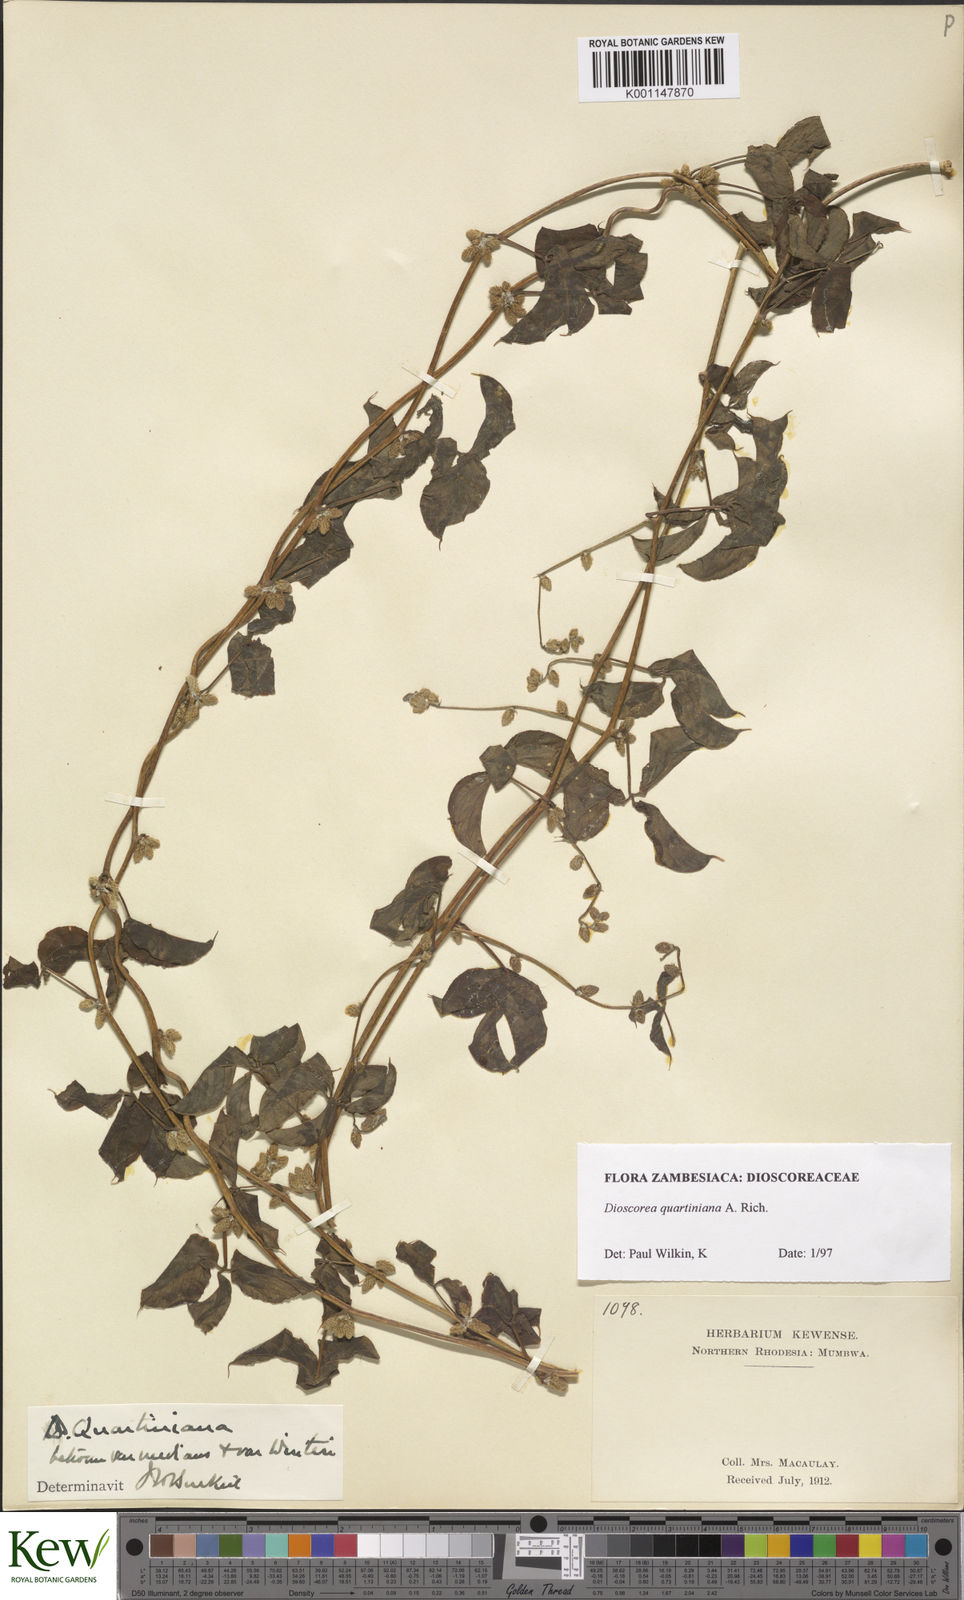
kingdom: Plantae
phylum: Tracheophyta
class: Liliopsida
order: Dioscoreales
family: Dioscoreaceae
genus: Dioscorea
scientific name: Dioscorea quartiniana
